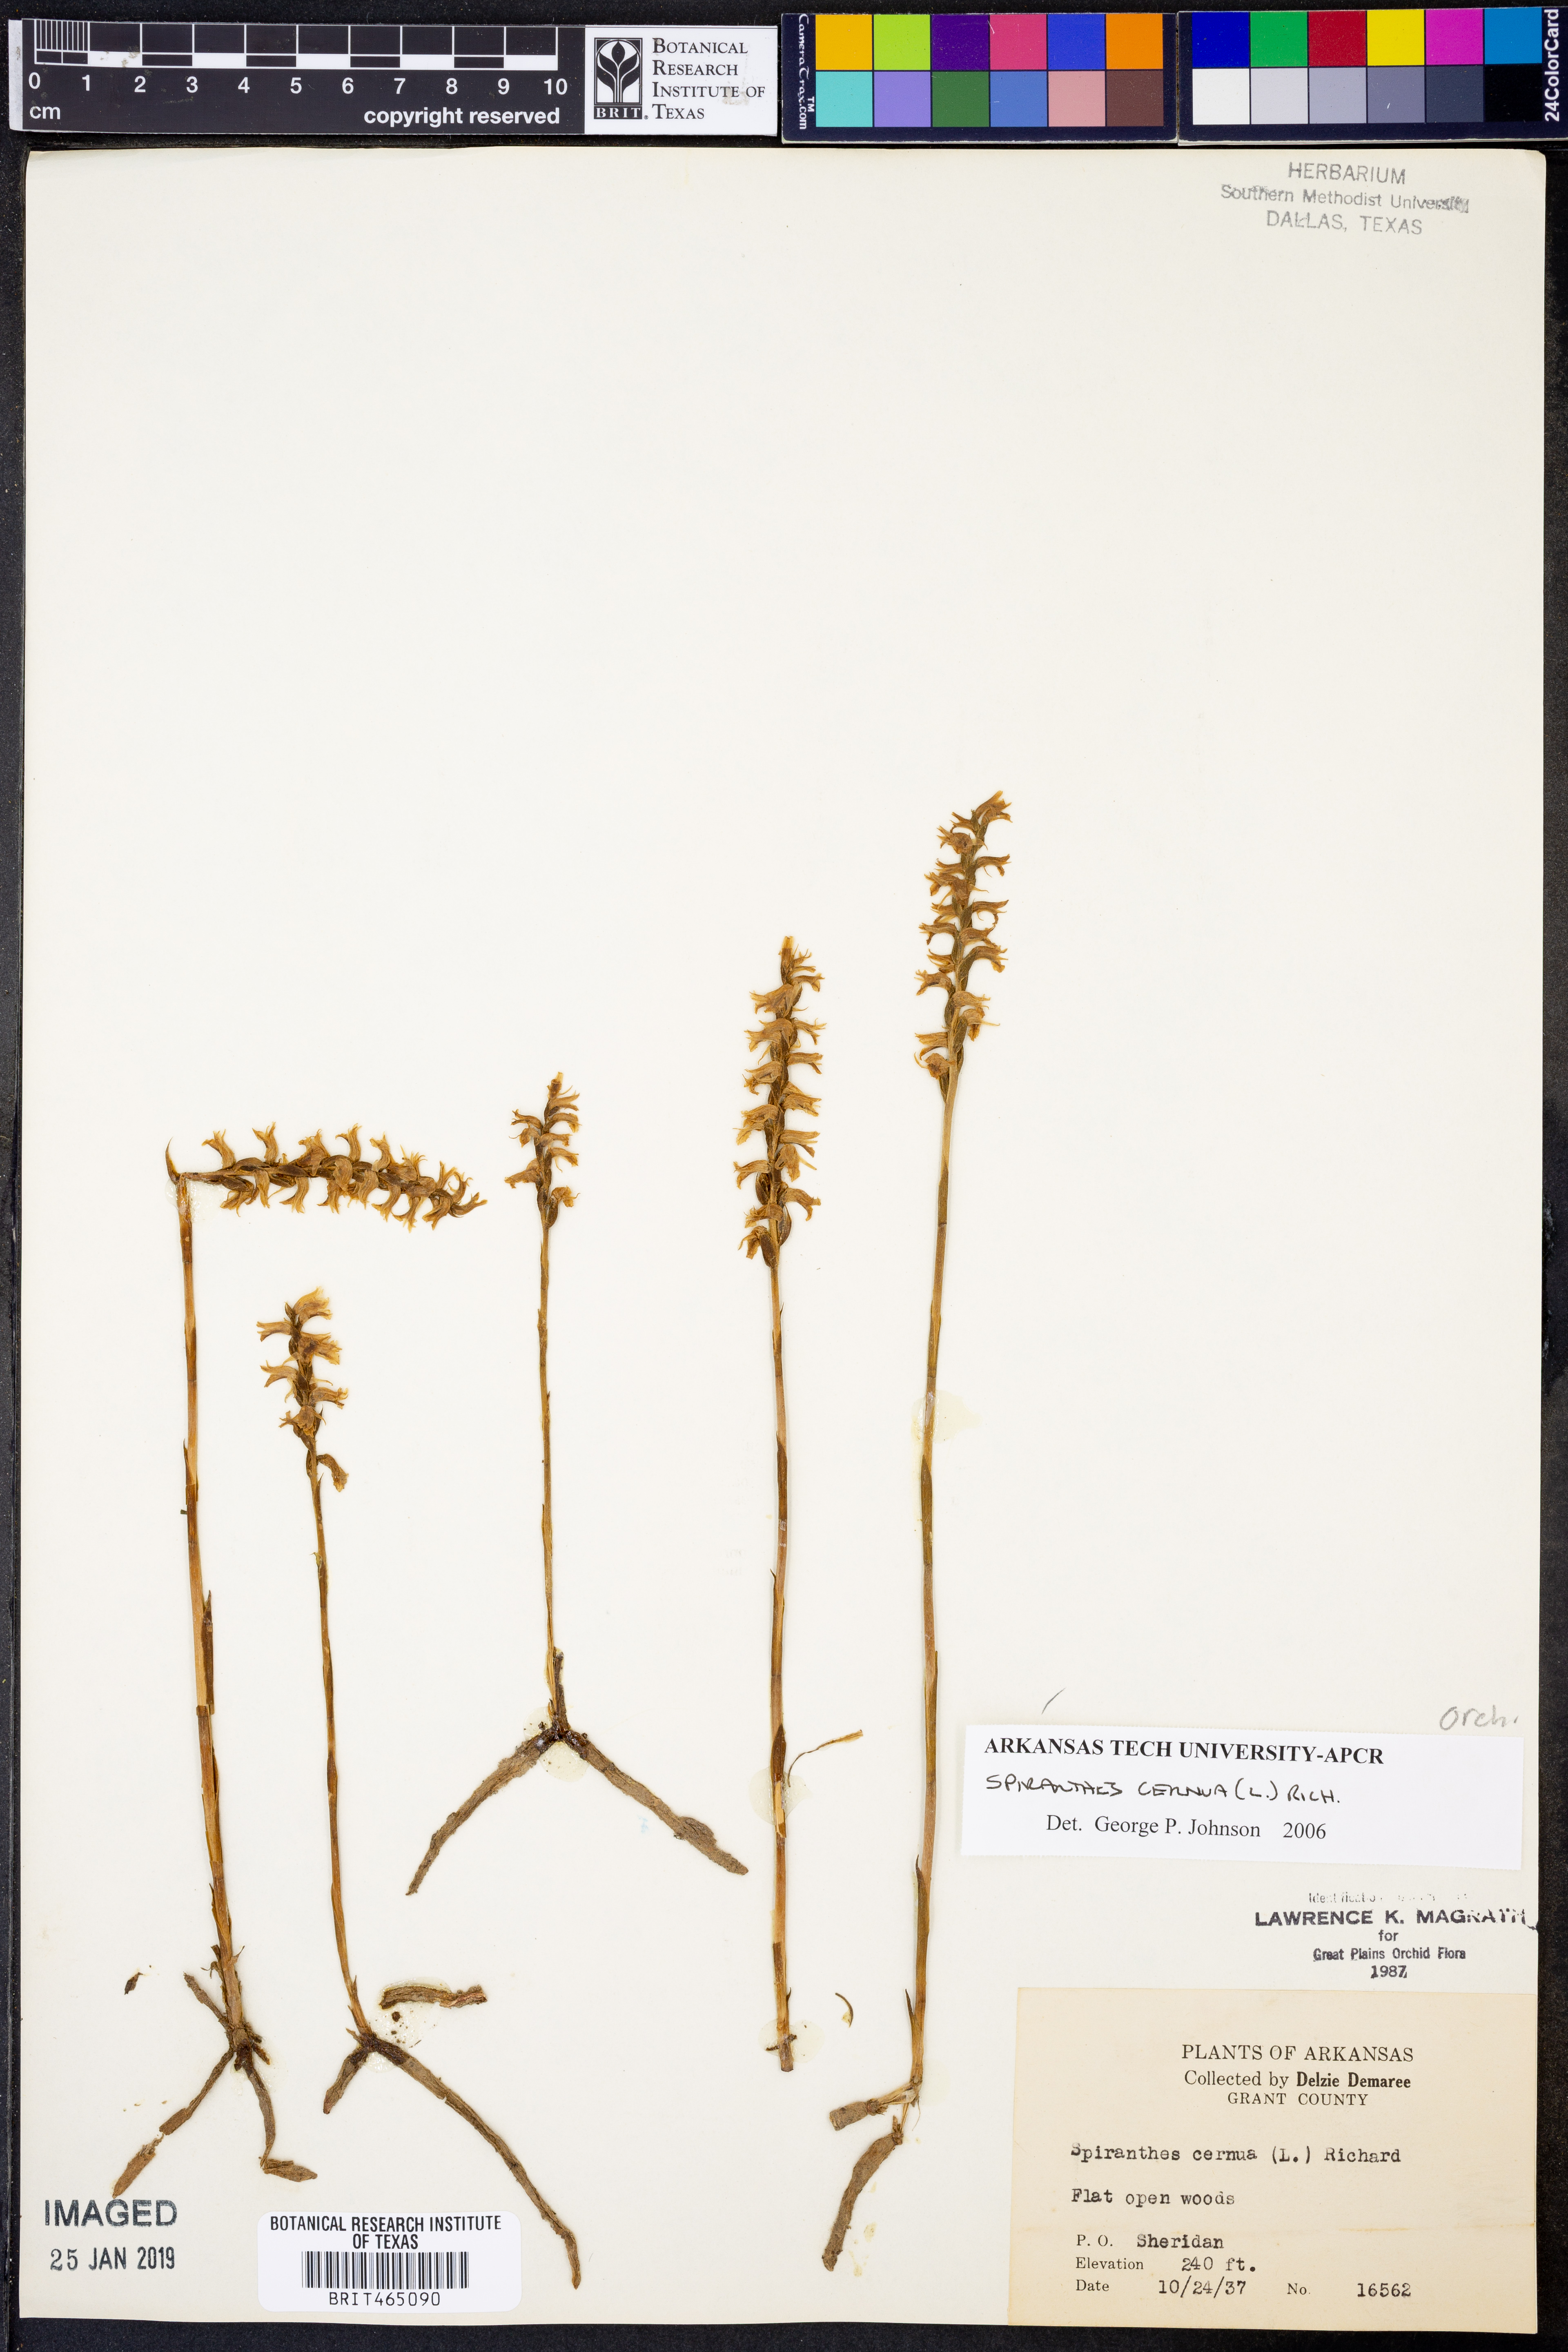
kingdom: Plantae
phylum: Tracheophyta
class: Liliopsida
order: Asparagales
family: Orchidaceae
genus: Spiranthes
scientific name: Spiranthes cernua
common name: Dropping ladies'-tresses
